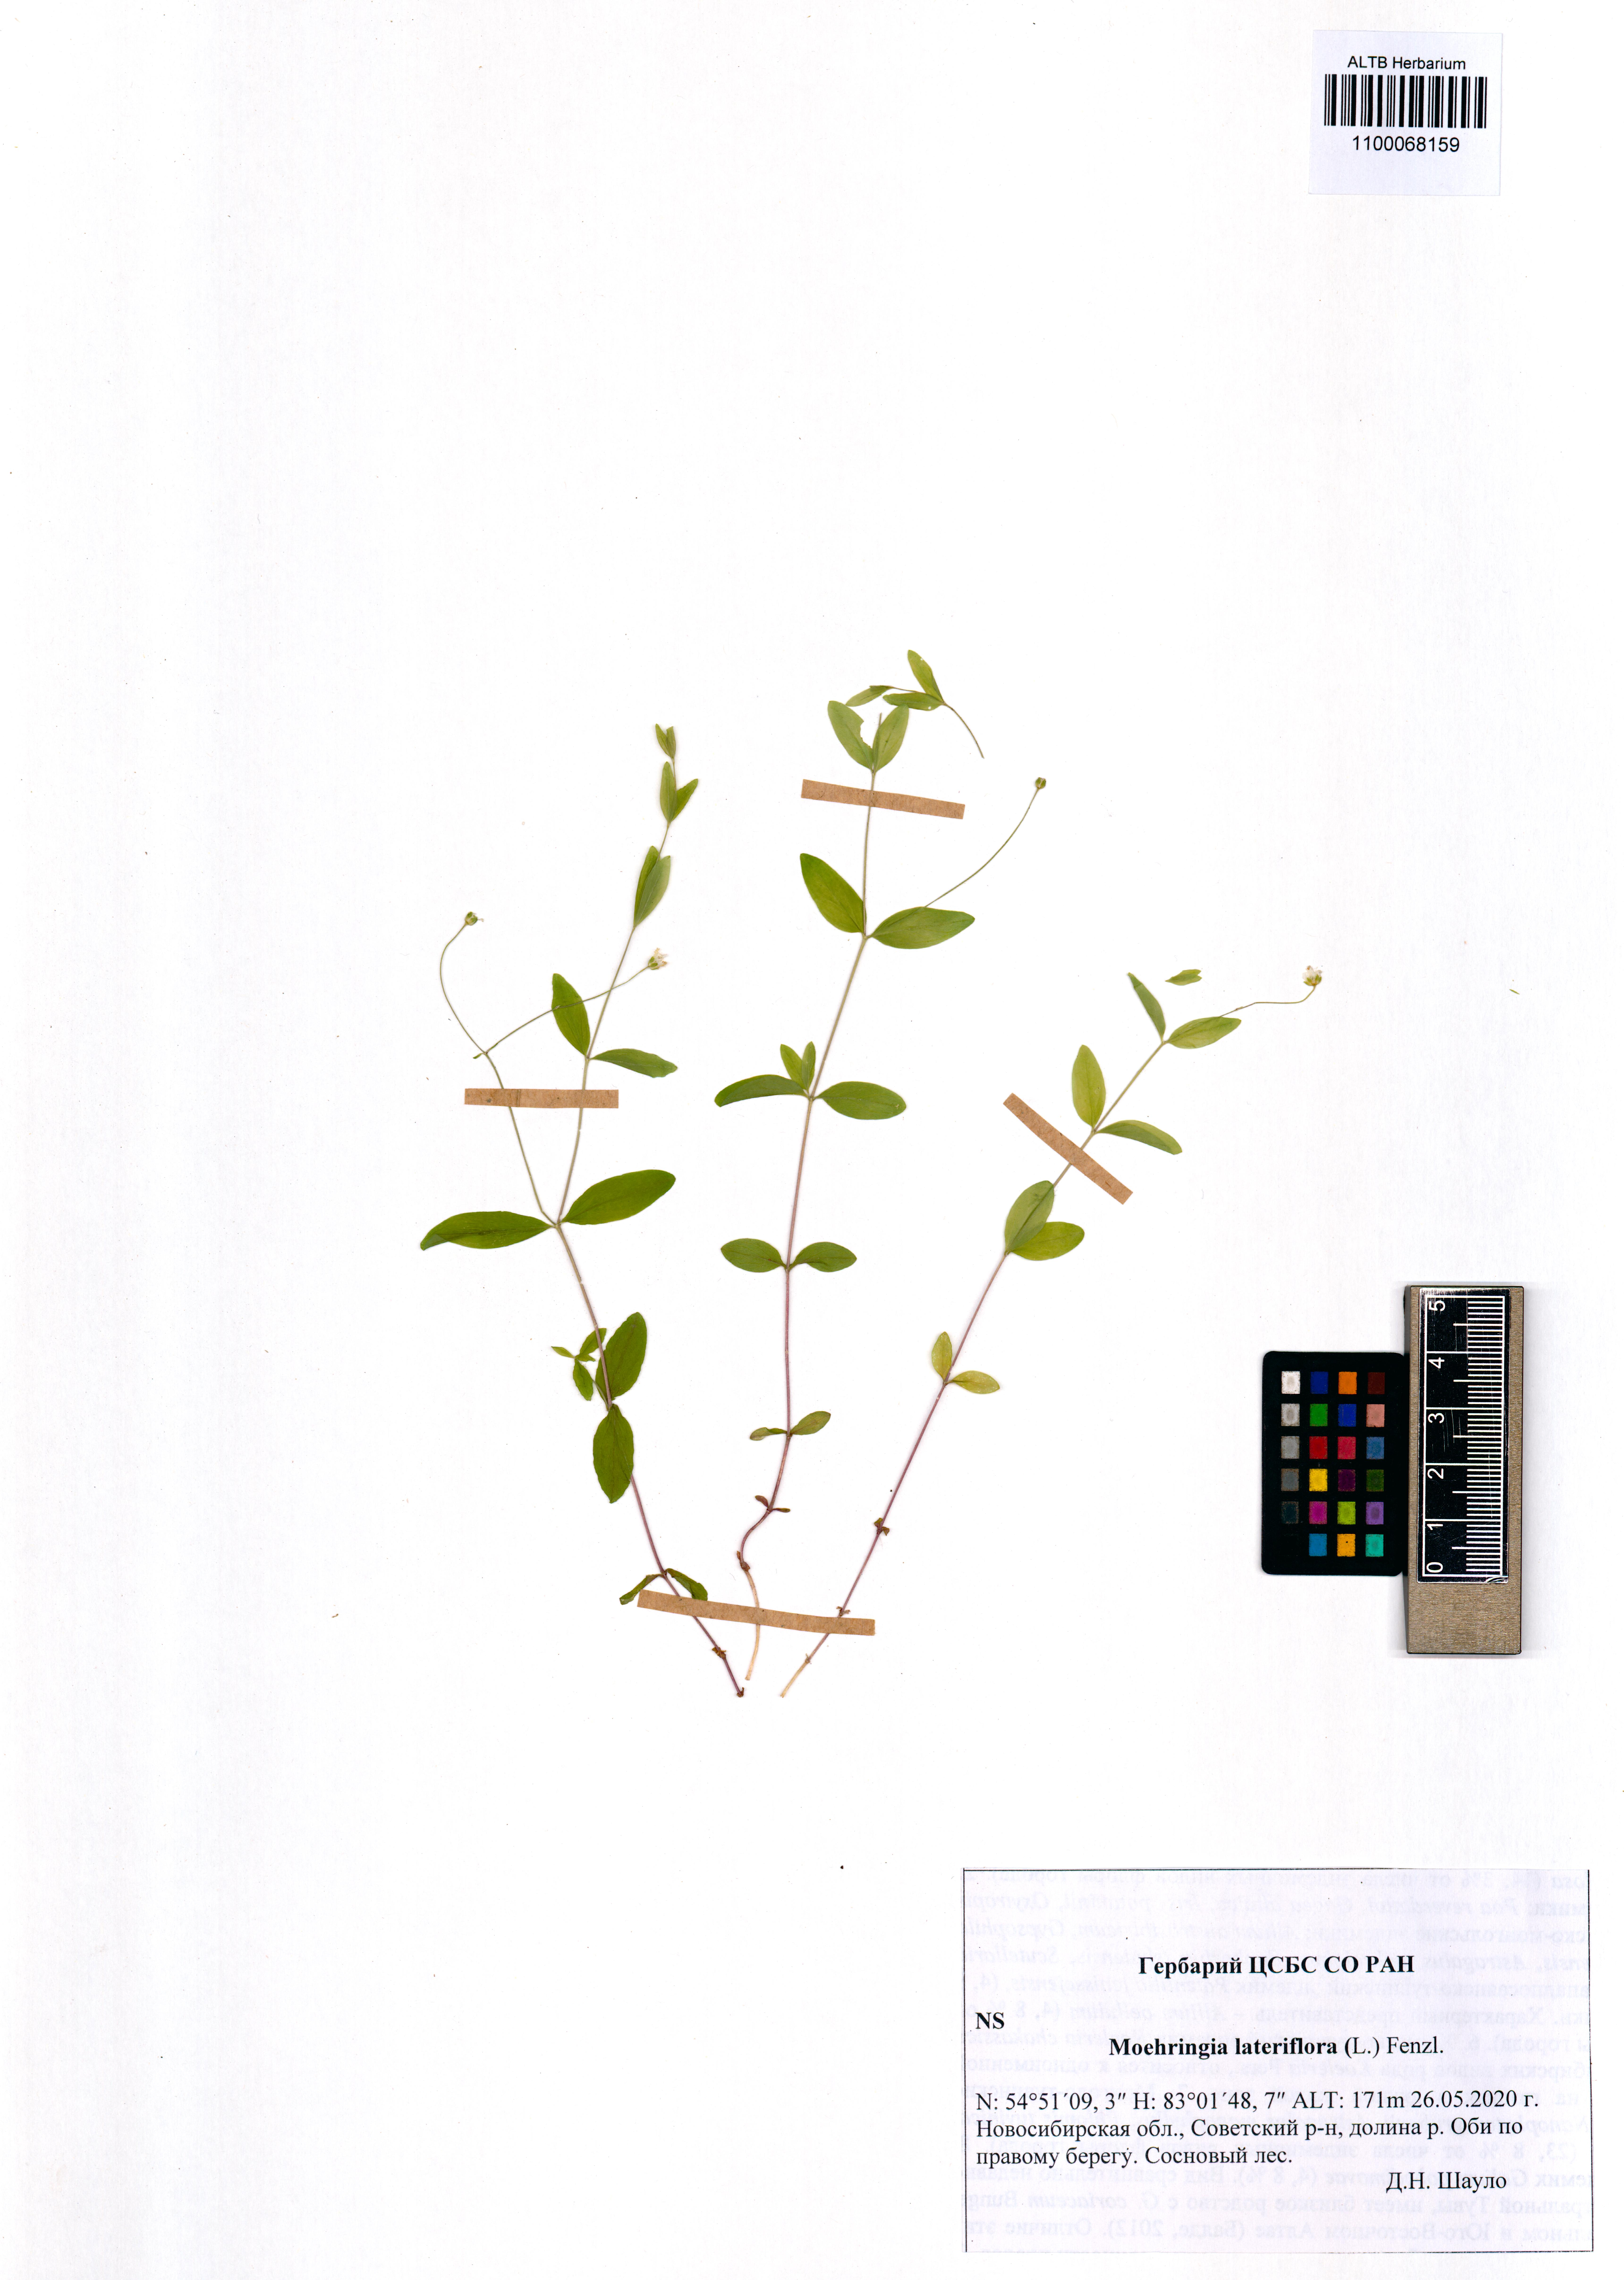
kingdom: Plantae
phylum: Tracheophyta
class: Magnoliopsida
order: Caryophyllales
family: Caryophyllaceae
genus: Moehringia
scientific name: Moehringia lateriflora
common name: Blunt-leaved sandwort
